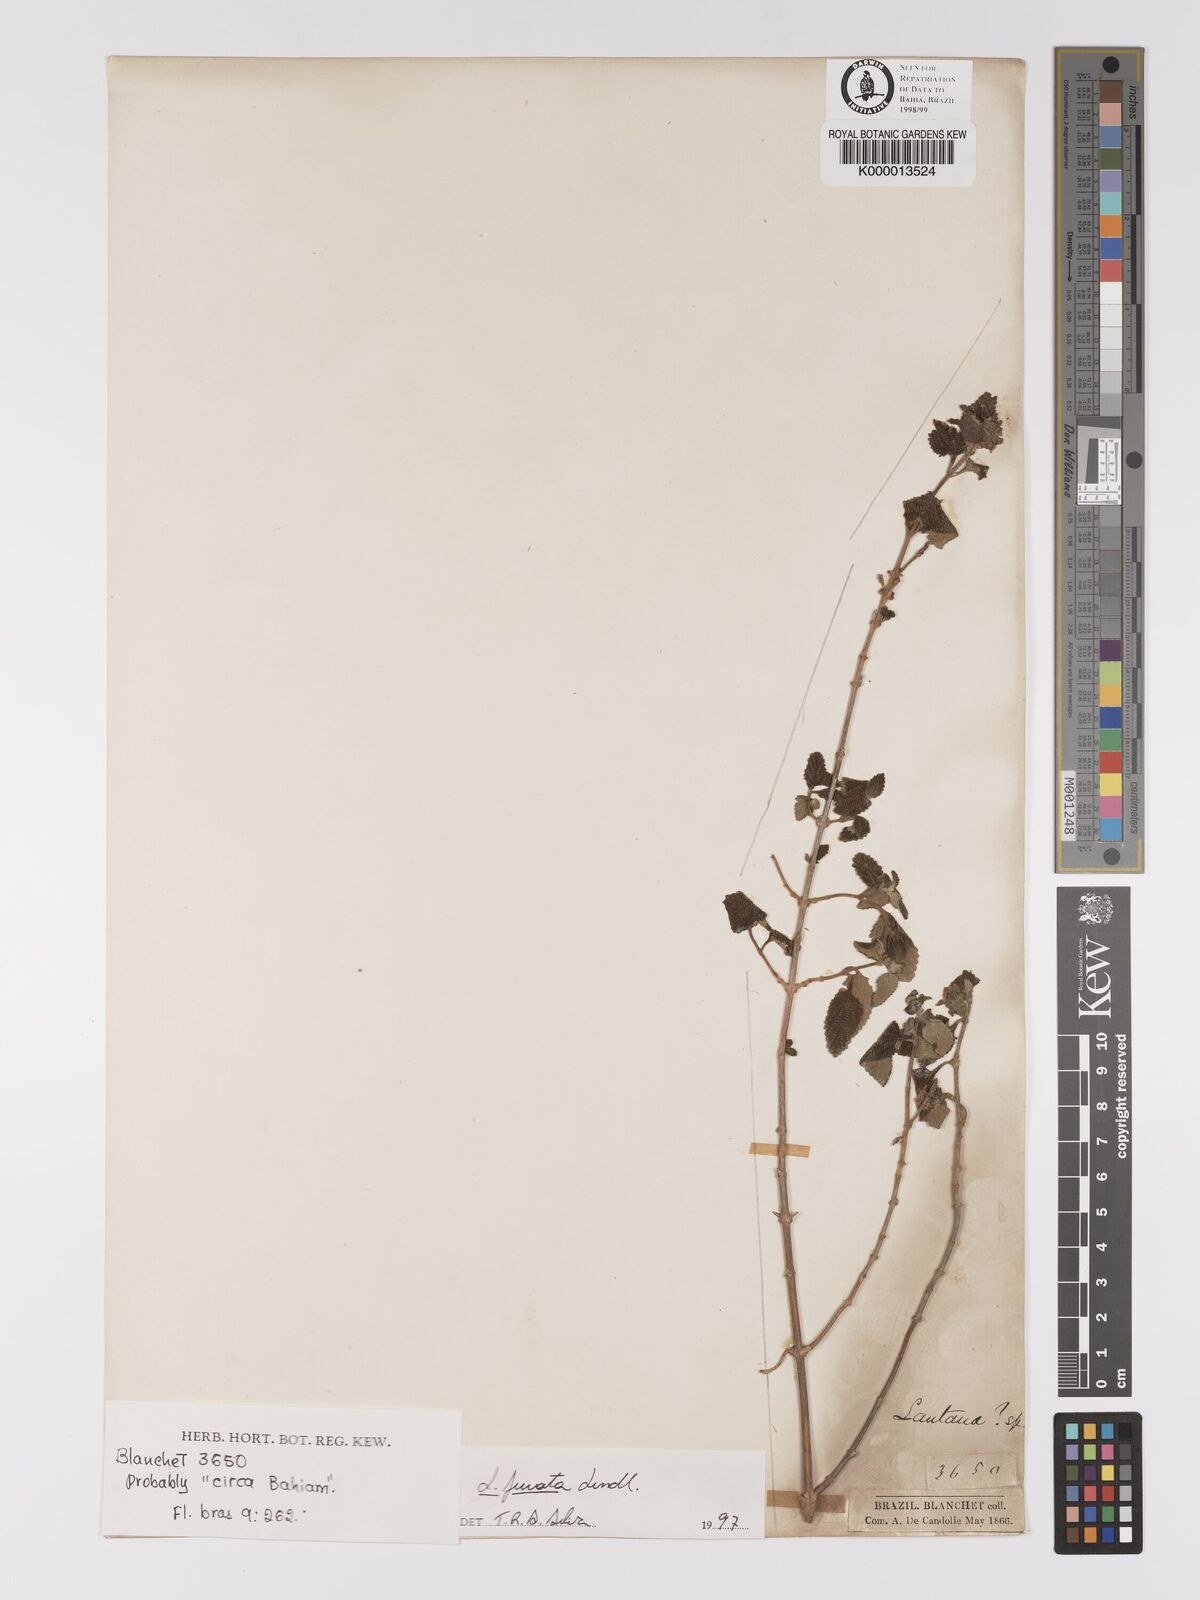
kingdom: Plantae
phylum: Tracheophyta
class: Magnoliopsida
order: Lamiales
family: Verbenaceae
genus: Lantana
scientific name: Lantana fucata
